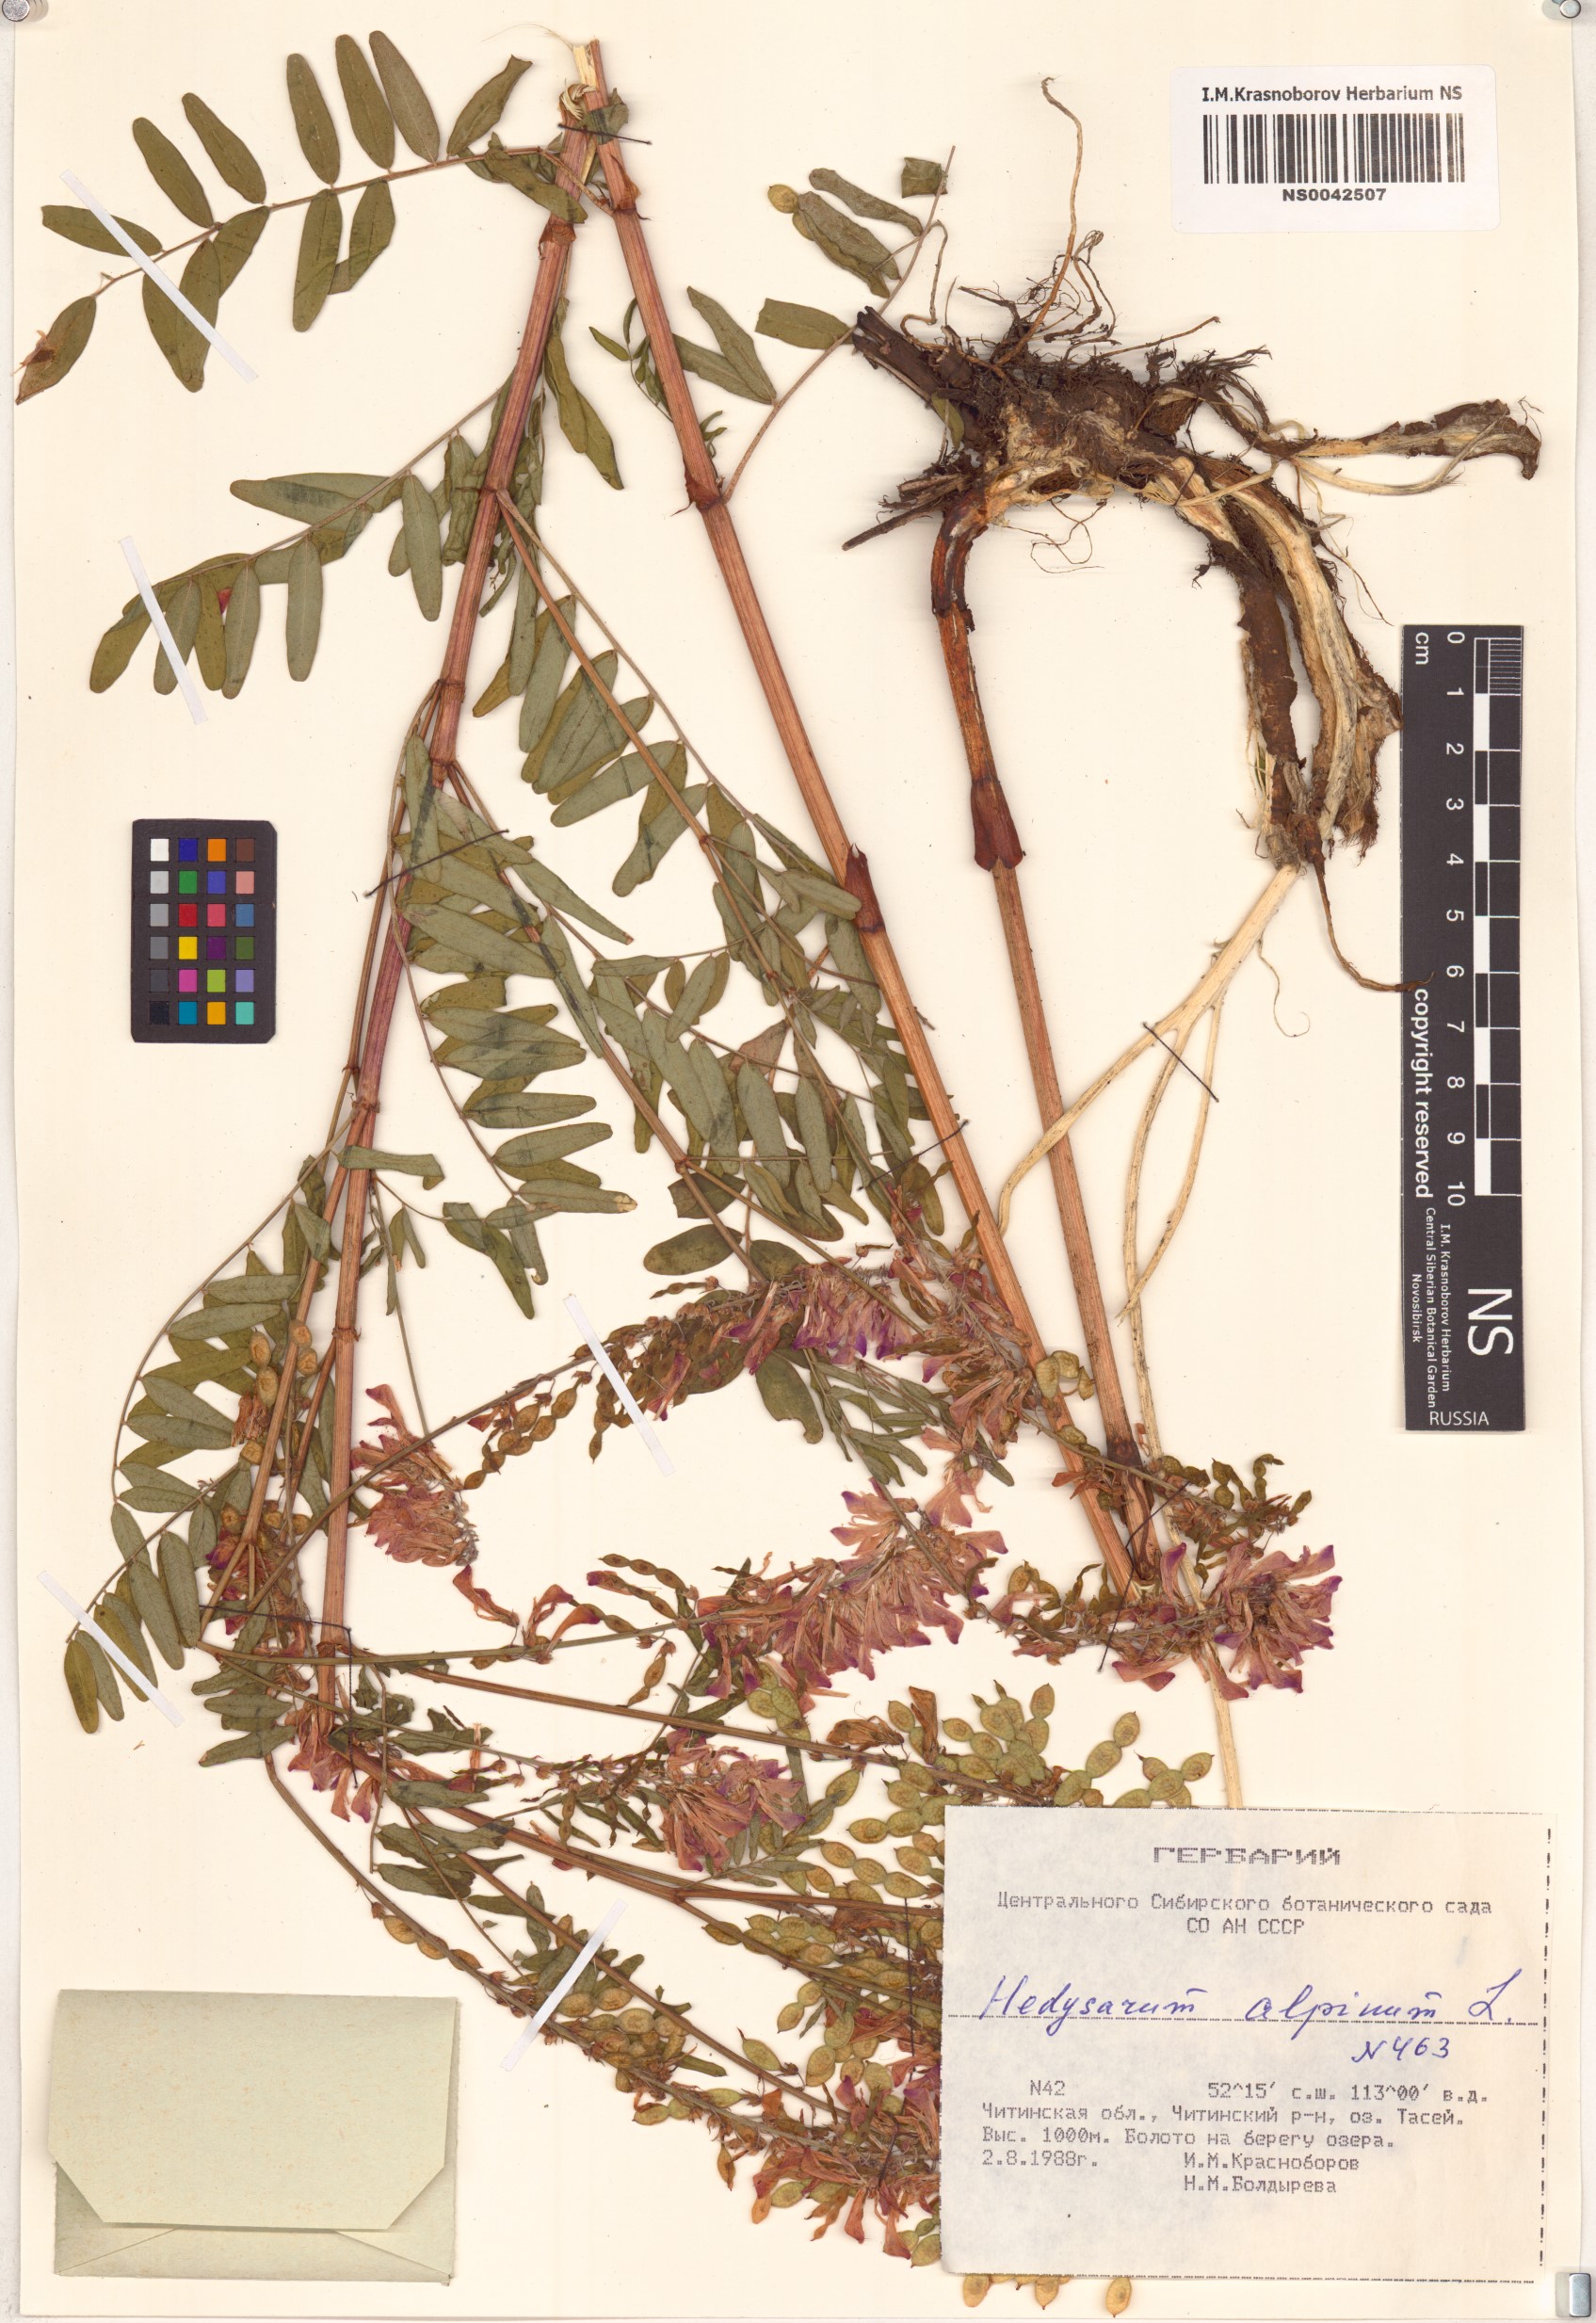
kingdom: Plantae
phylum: Tracheophyta
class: Magnoliopsida
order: Fabales
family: Fabaceae
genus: Hedysarum
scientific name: Hedysarum alpinum
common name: Alpine sweet-vetch
